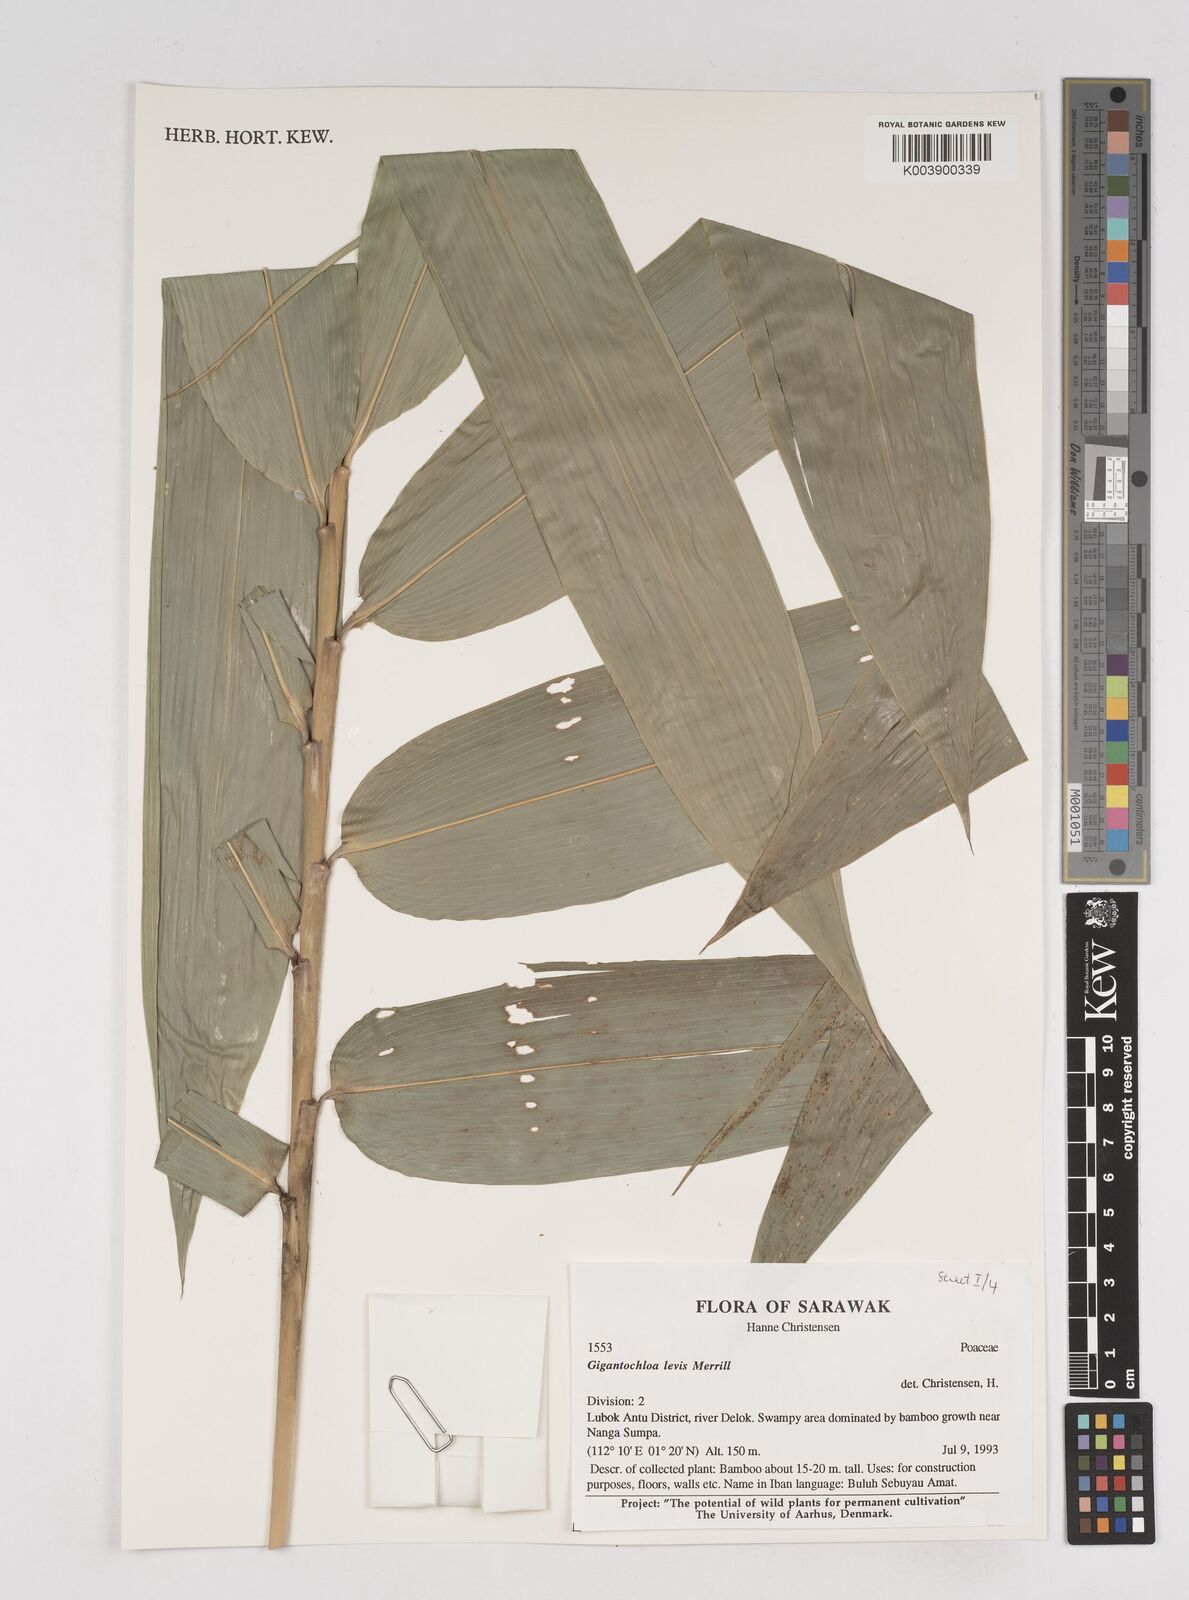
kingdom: Plantae
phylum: Tracheophyta
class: Liliopsida
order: Poales
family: Poaceae
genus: Gigantochloa
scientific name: Gigantochloa levis
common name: Smooth-shoot gigantochloa
